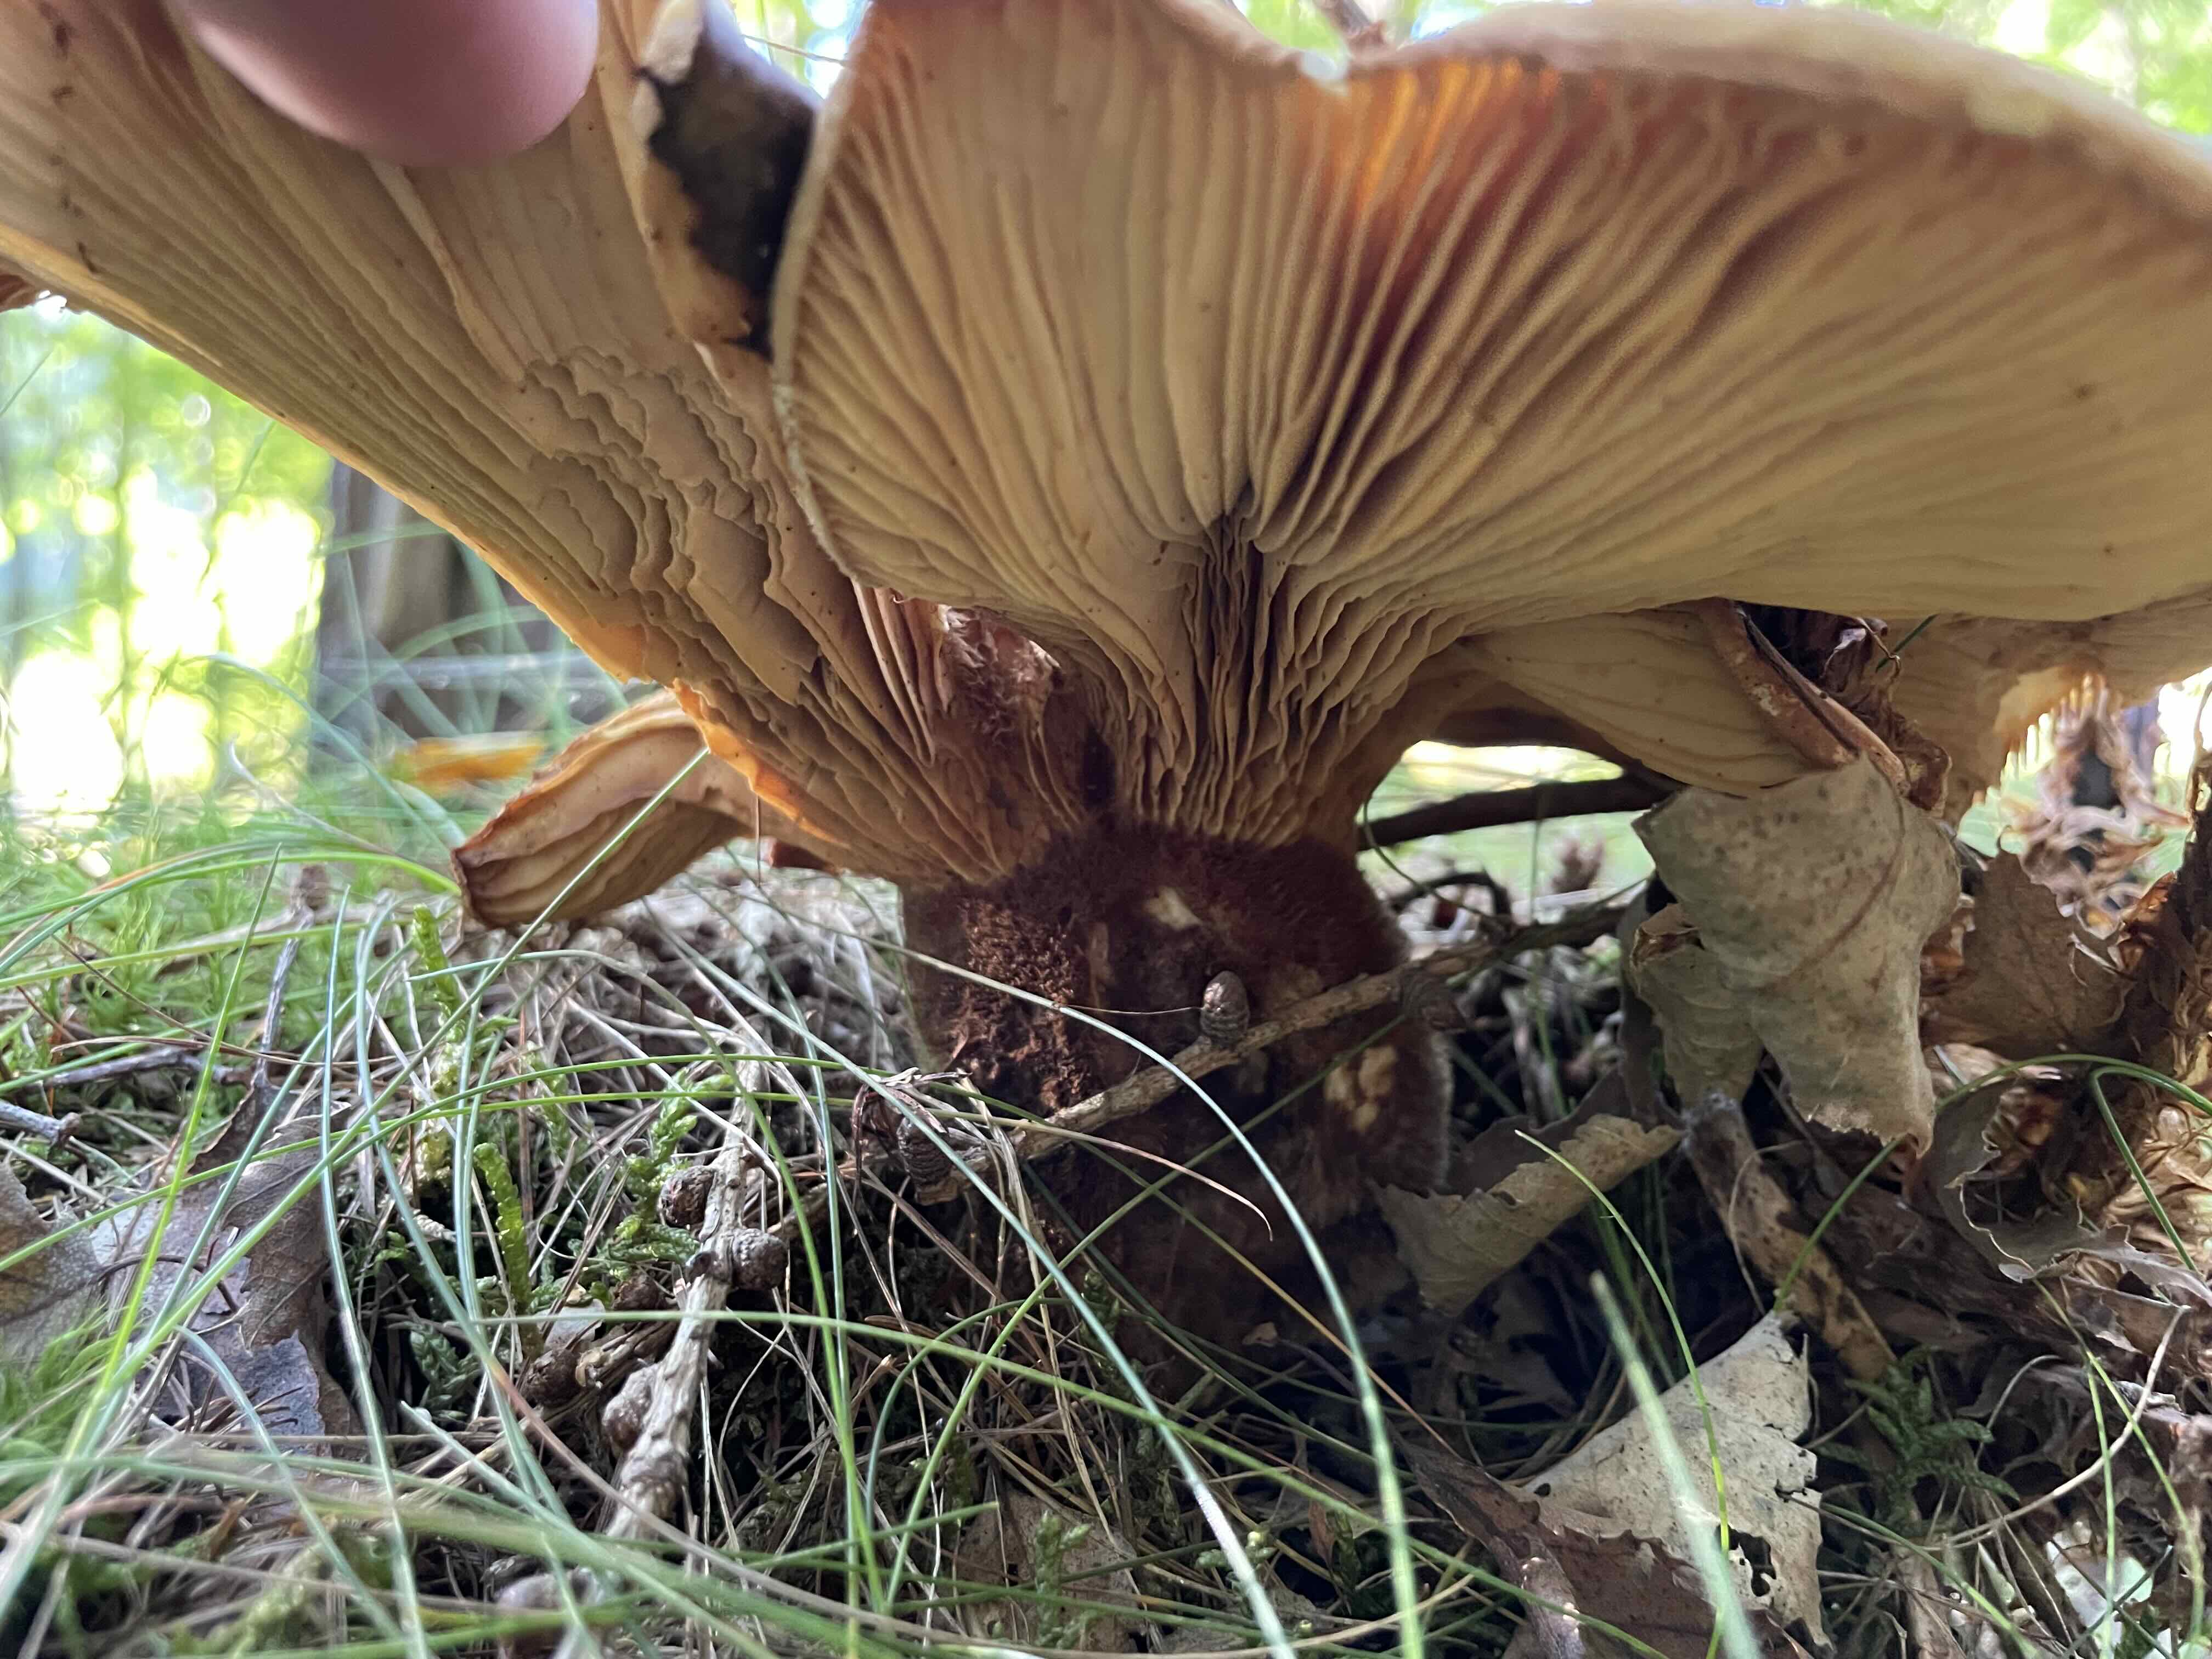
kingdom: Fungi
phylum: Basidiomycota
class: Agaricomycetes
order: Boletales
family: Tapinellaceae
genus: Tapinella
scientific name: Tapinella atrotomentosa
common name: sortfiltet viftesvamp
